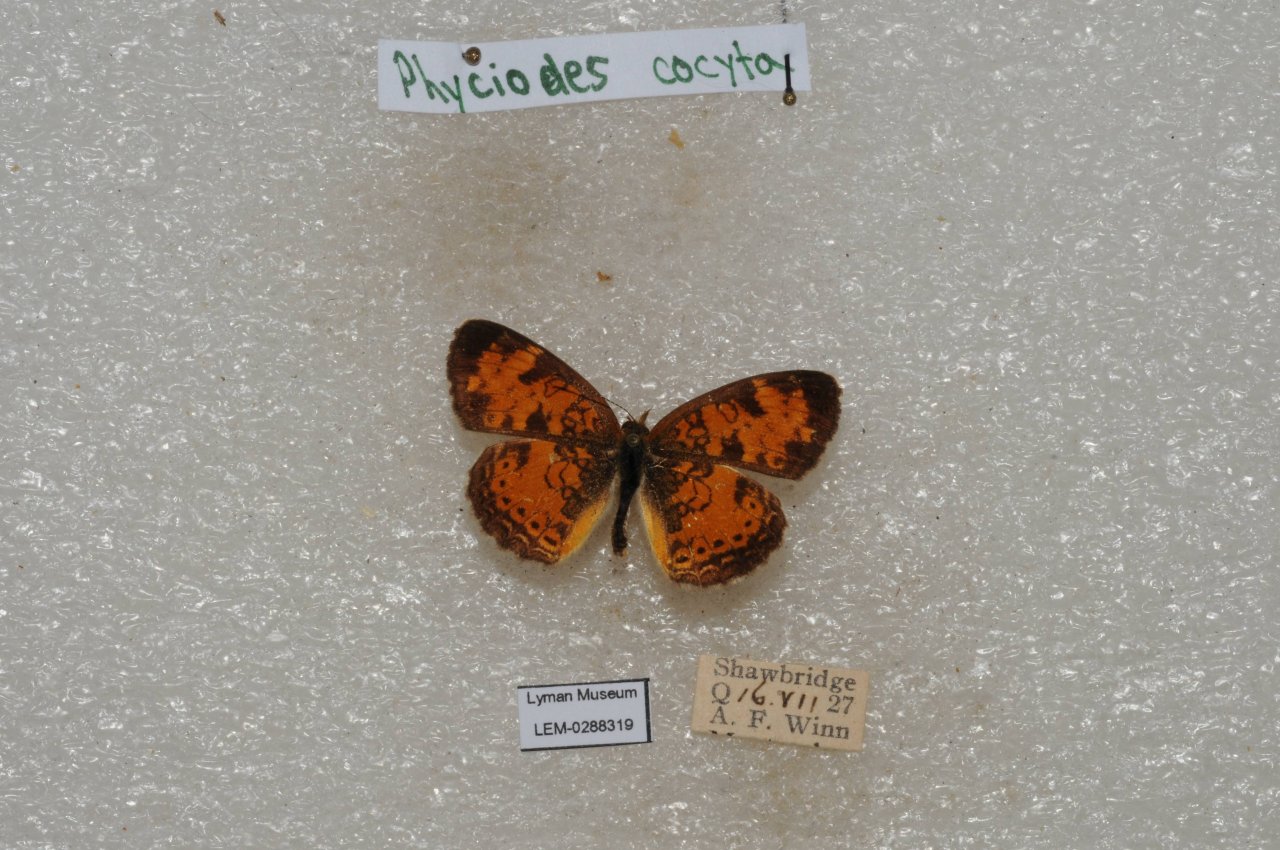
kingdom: Animalia
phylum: Arthropoda
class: Insecta
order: Lepidoptera
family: Nymphalidae
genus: Phyciodes
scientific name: Phyciodes tharos
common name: Northern Crescent
